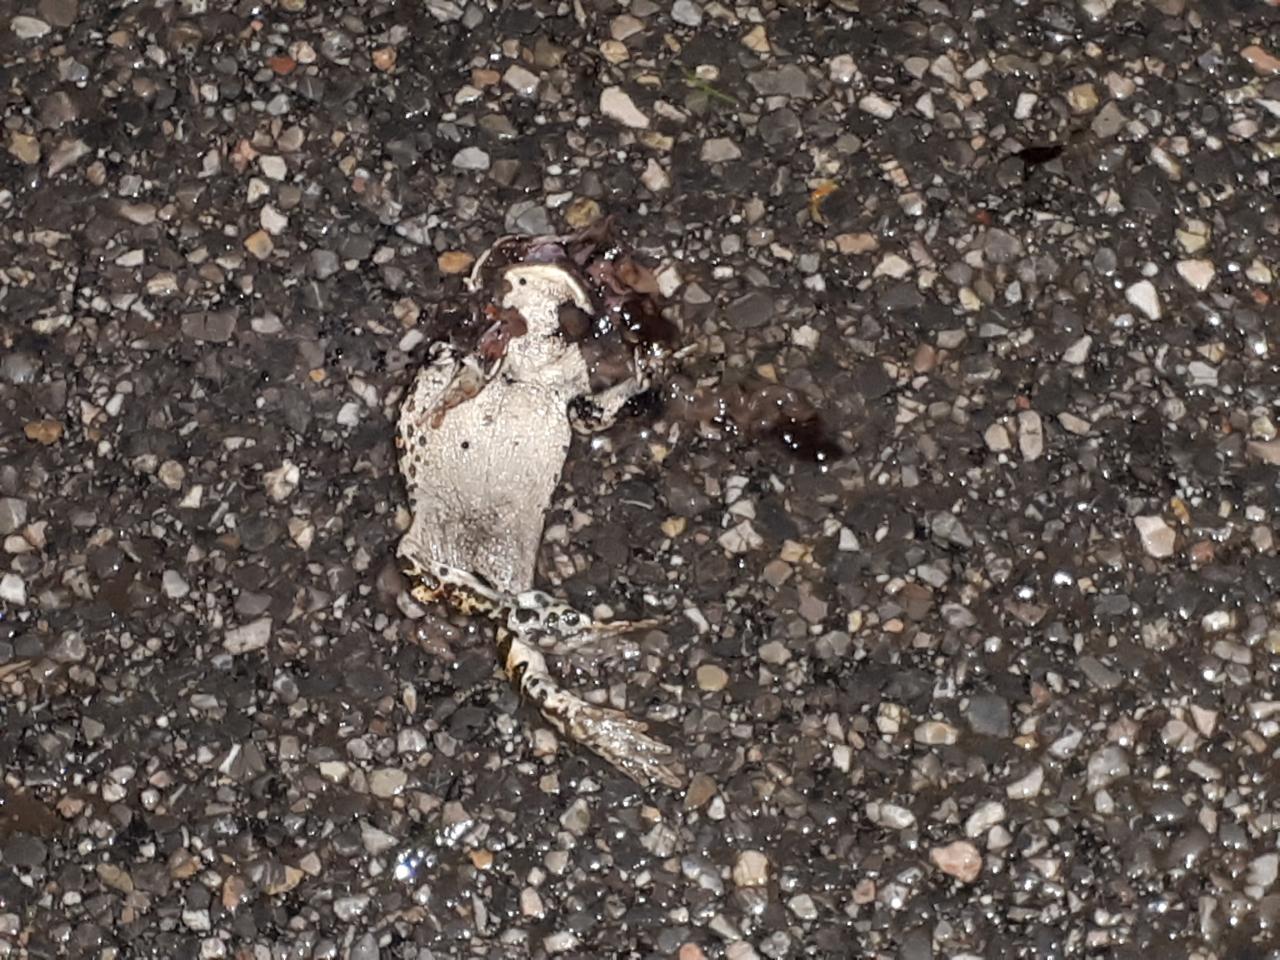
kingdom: Animalia
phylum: Chordata
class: Amphibia
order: Anura
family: Bufonidae
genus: Bufotes
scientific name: Bufotes viridis
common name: European green toad
